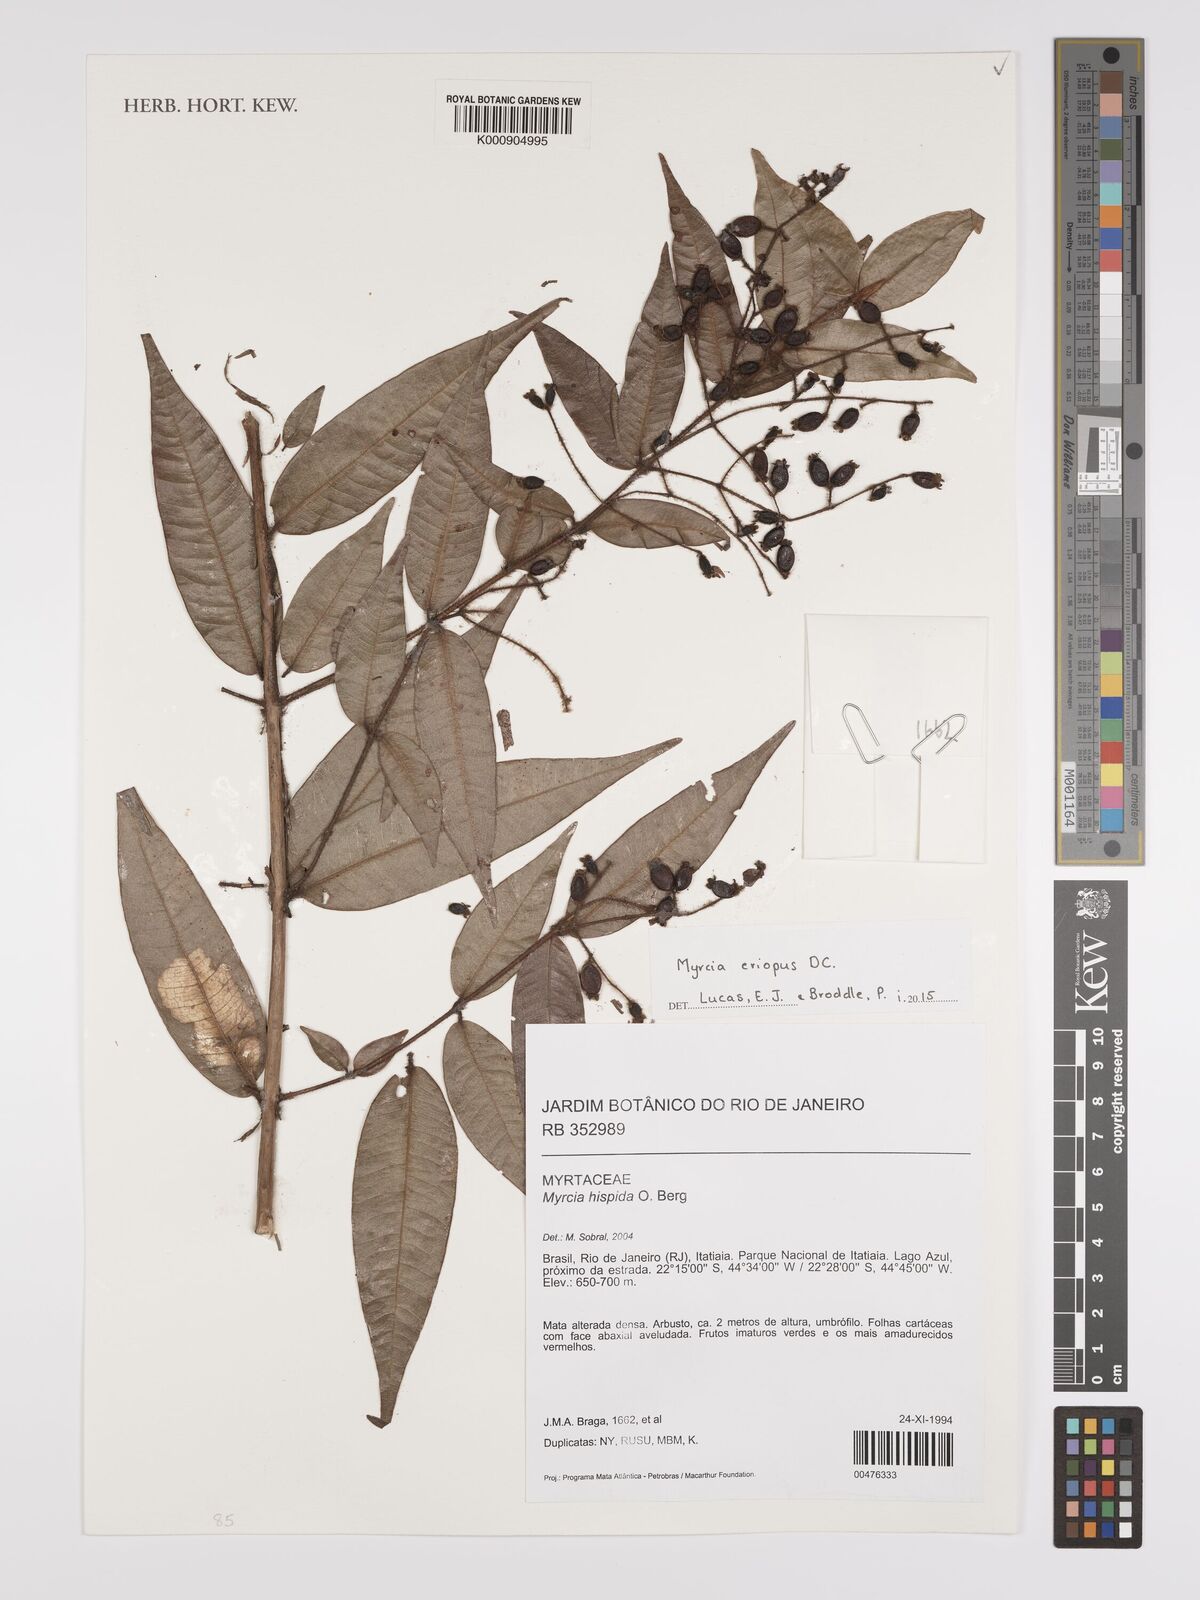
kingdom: Plantae
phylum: Tracheophyta
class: Magnoliopsida
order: Myrtales
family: Myrtaceae
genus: Myrcia
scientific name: Myrcia eriopus
